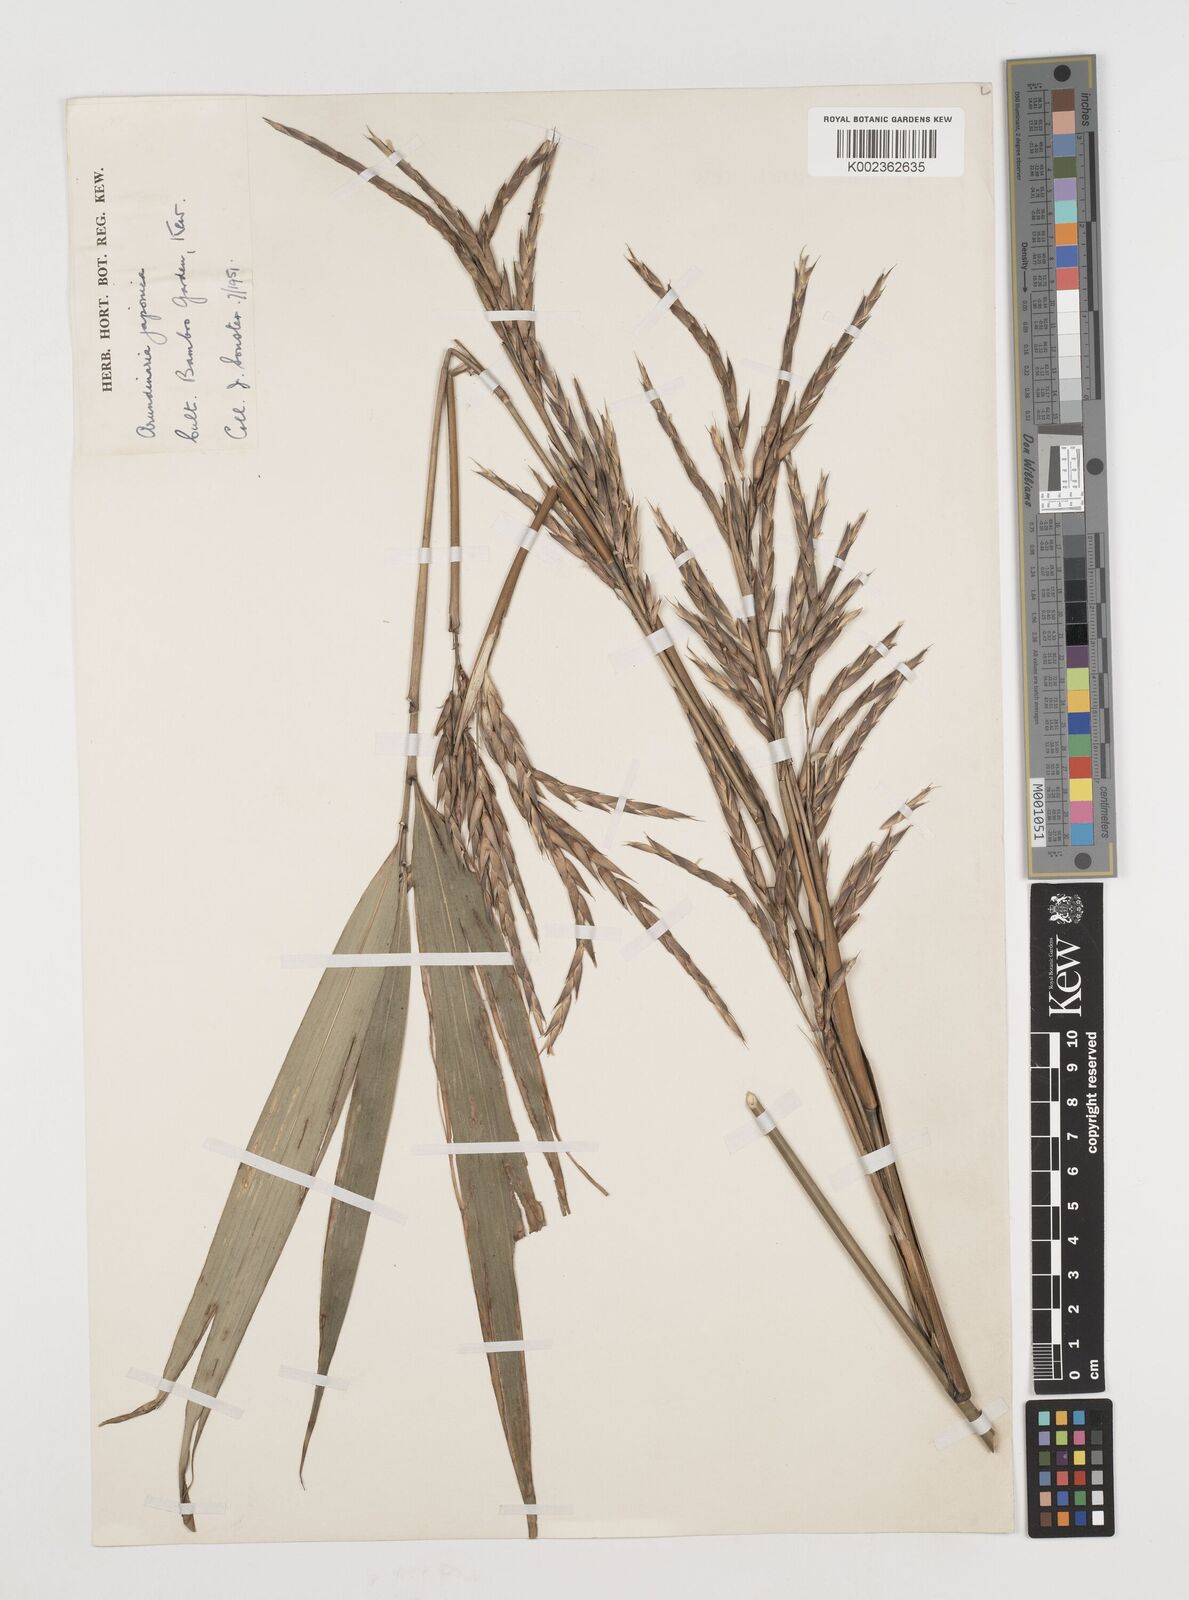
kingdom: Plantae
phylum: Tracheophyta
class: Liliopsida
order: Poales
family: Poaceae
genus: Pseudosasa
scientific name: Pseudosasa japonica
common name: Arrow bamboo
